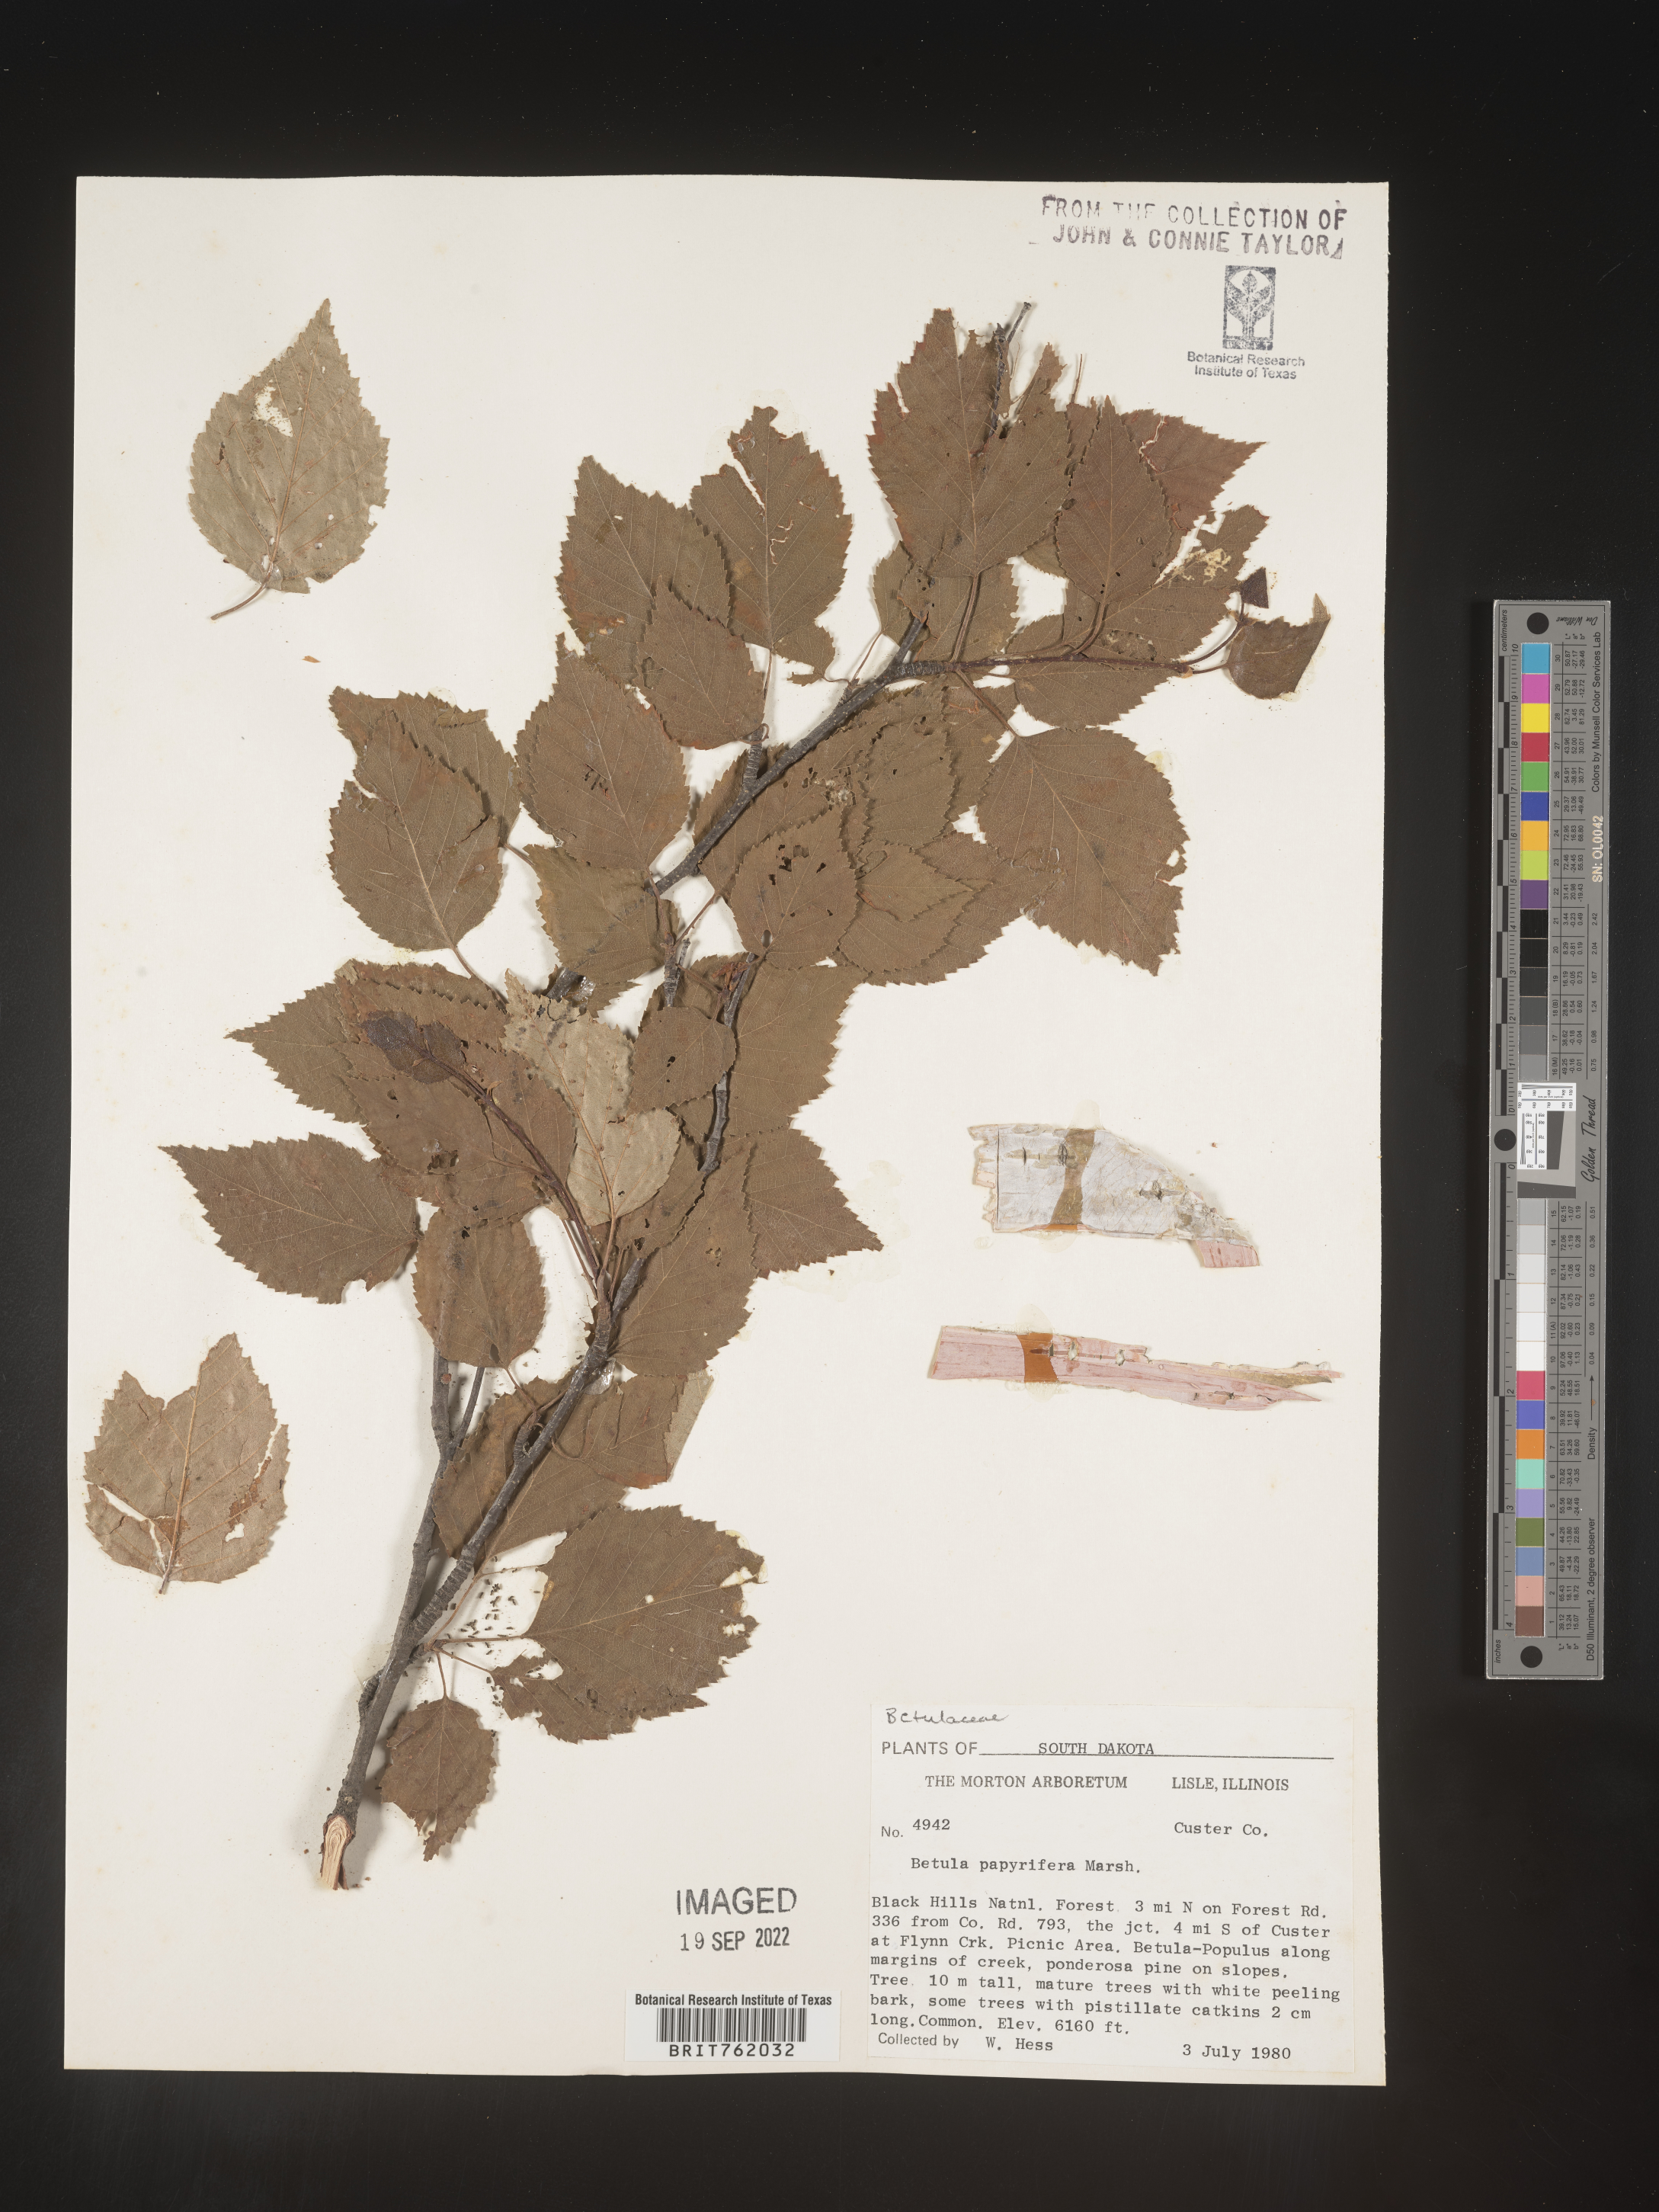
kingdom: Plantae
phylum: Tracheophyta
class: Magnoliopsida
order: Fagales
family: Betulaceae
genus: Betula
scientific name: Betula papyrifera
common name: Paper birch
